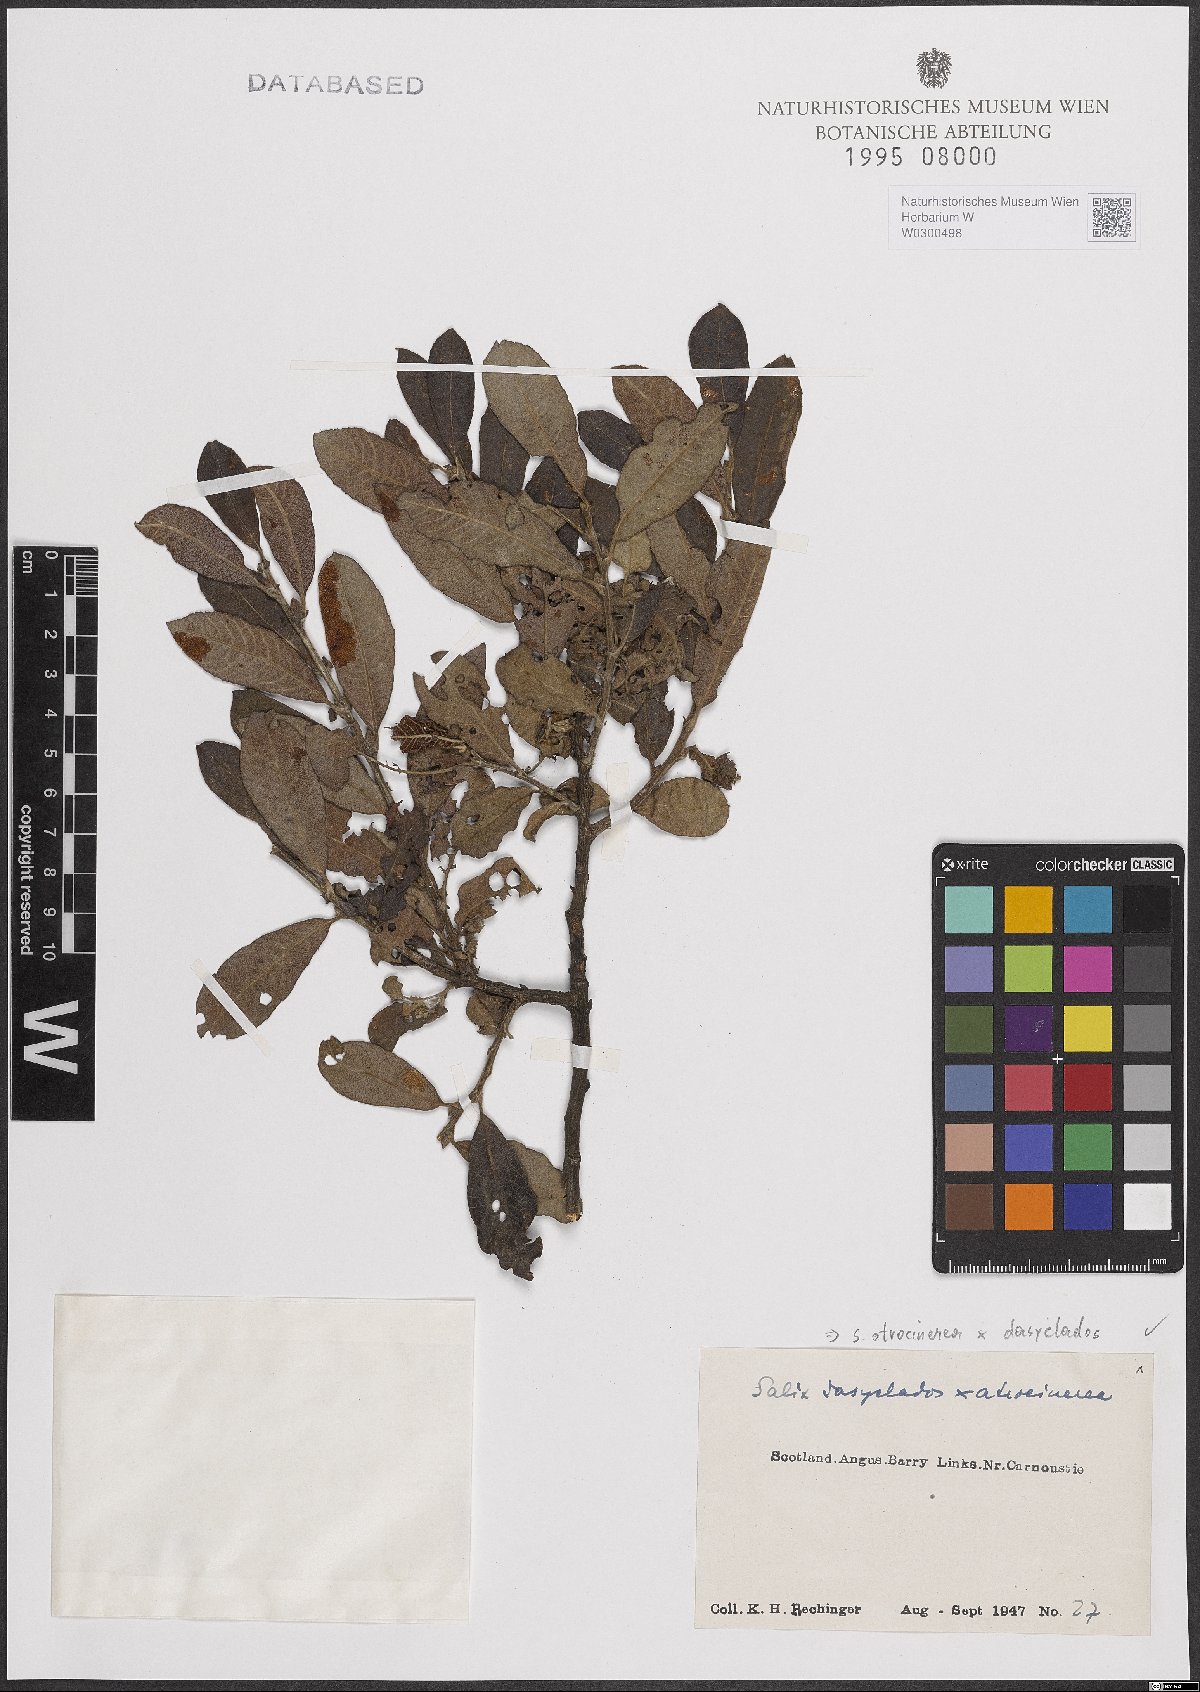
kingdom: Plantae
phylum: Tracheophyta
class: Magnoliopsida
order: Malpighiales
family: Salicaceae
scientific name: Salicaceae
